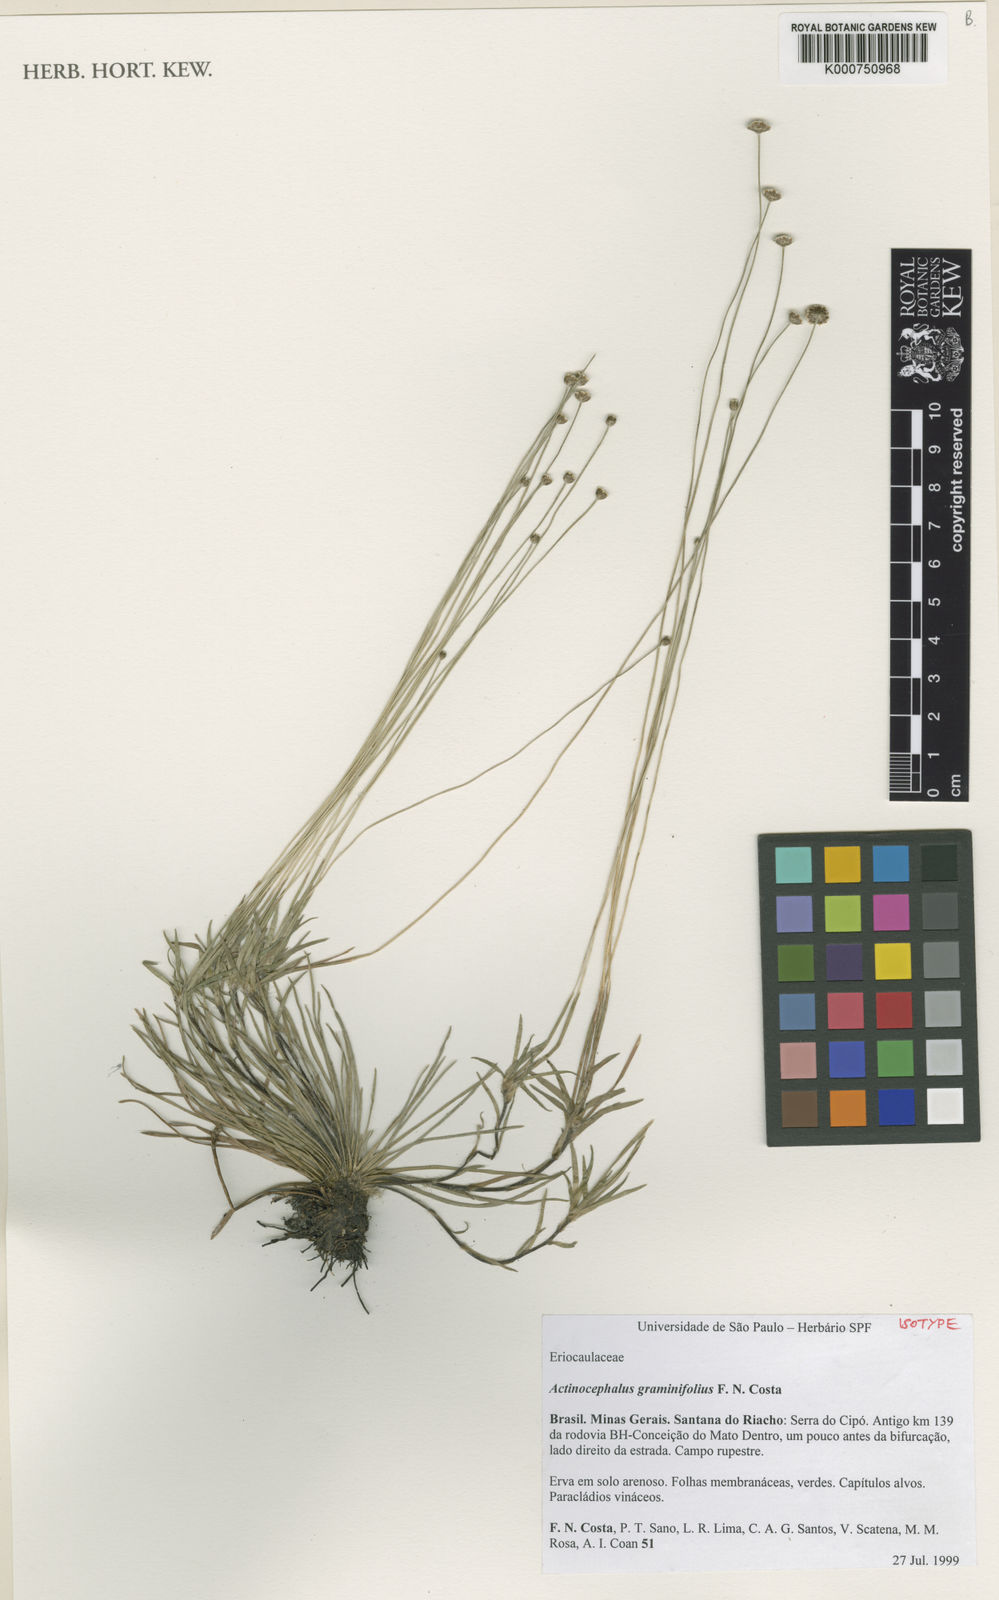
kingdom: Plantae
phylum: Tracheophyta
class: Liliopsida
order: Poales
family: Eriocaulaceae
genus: Paepalanthus
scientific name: Paepalanthus graminifolius
